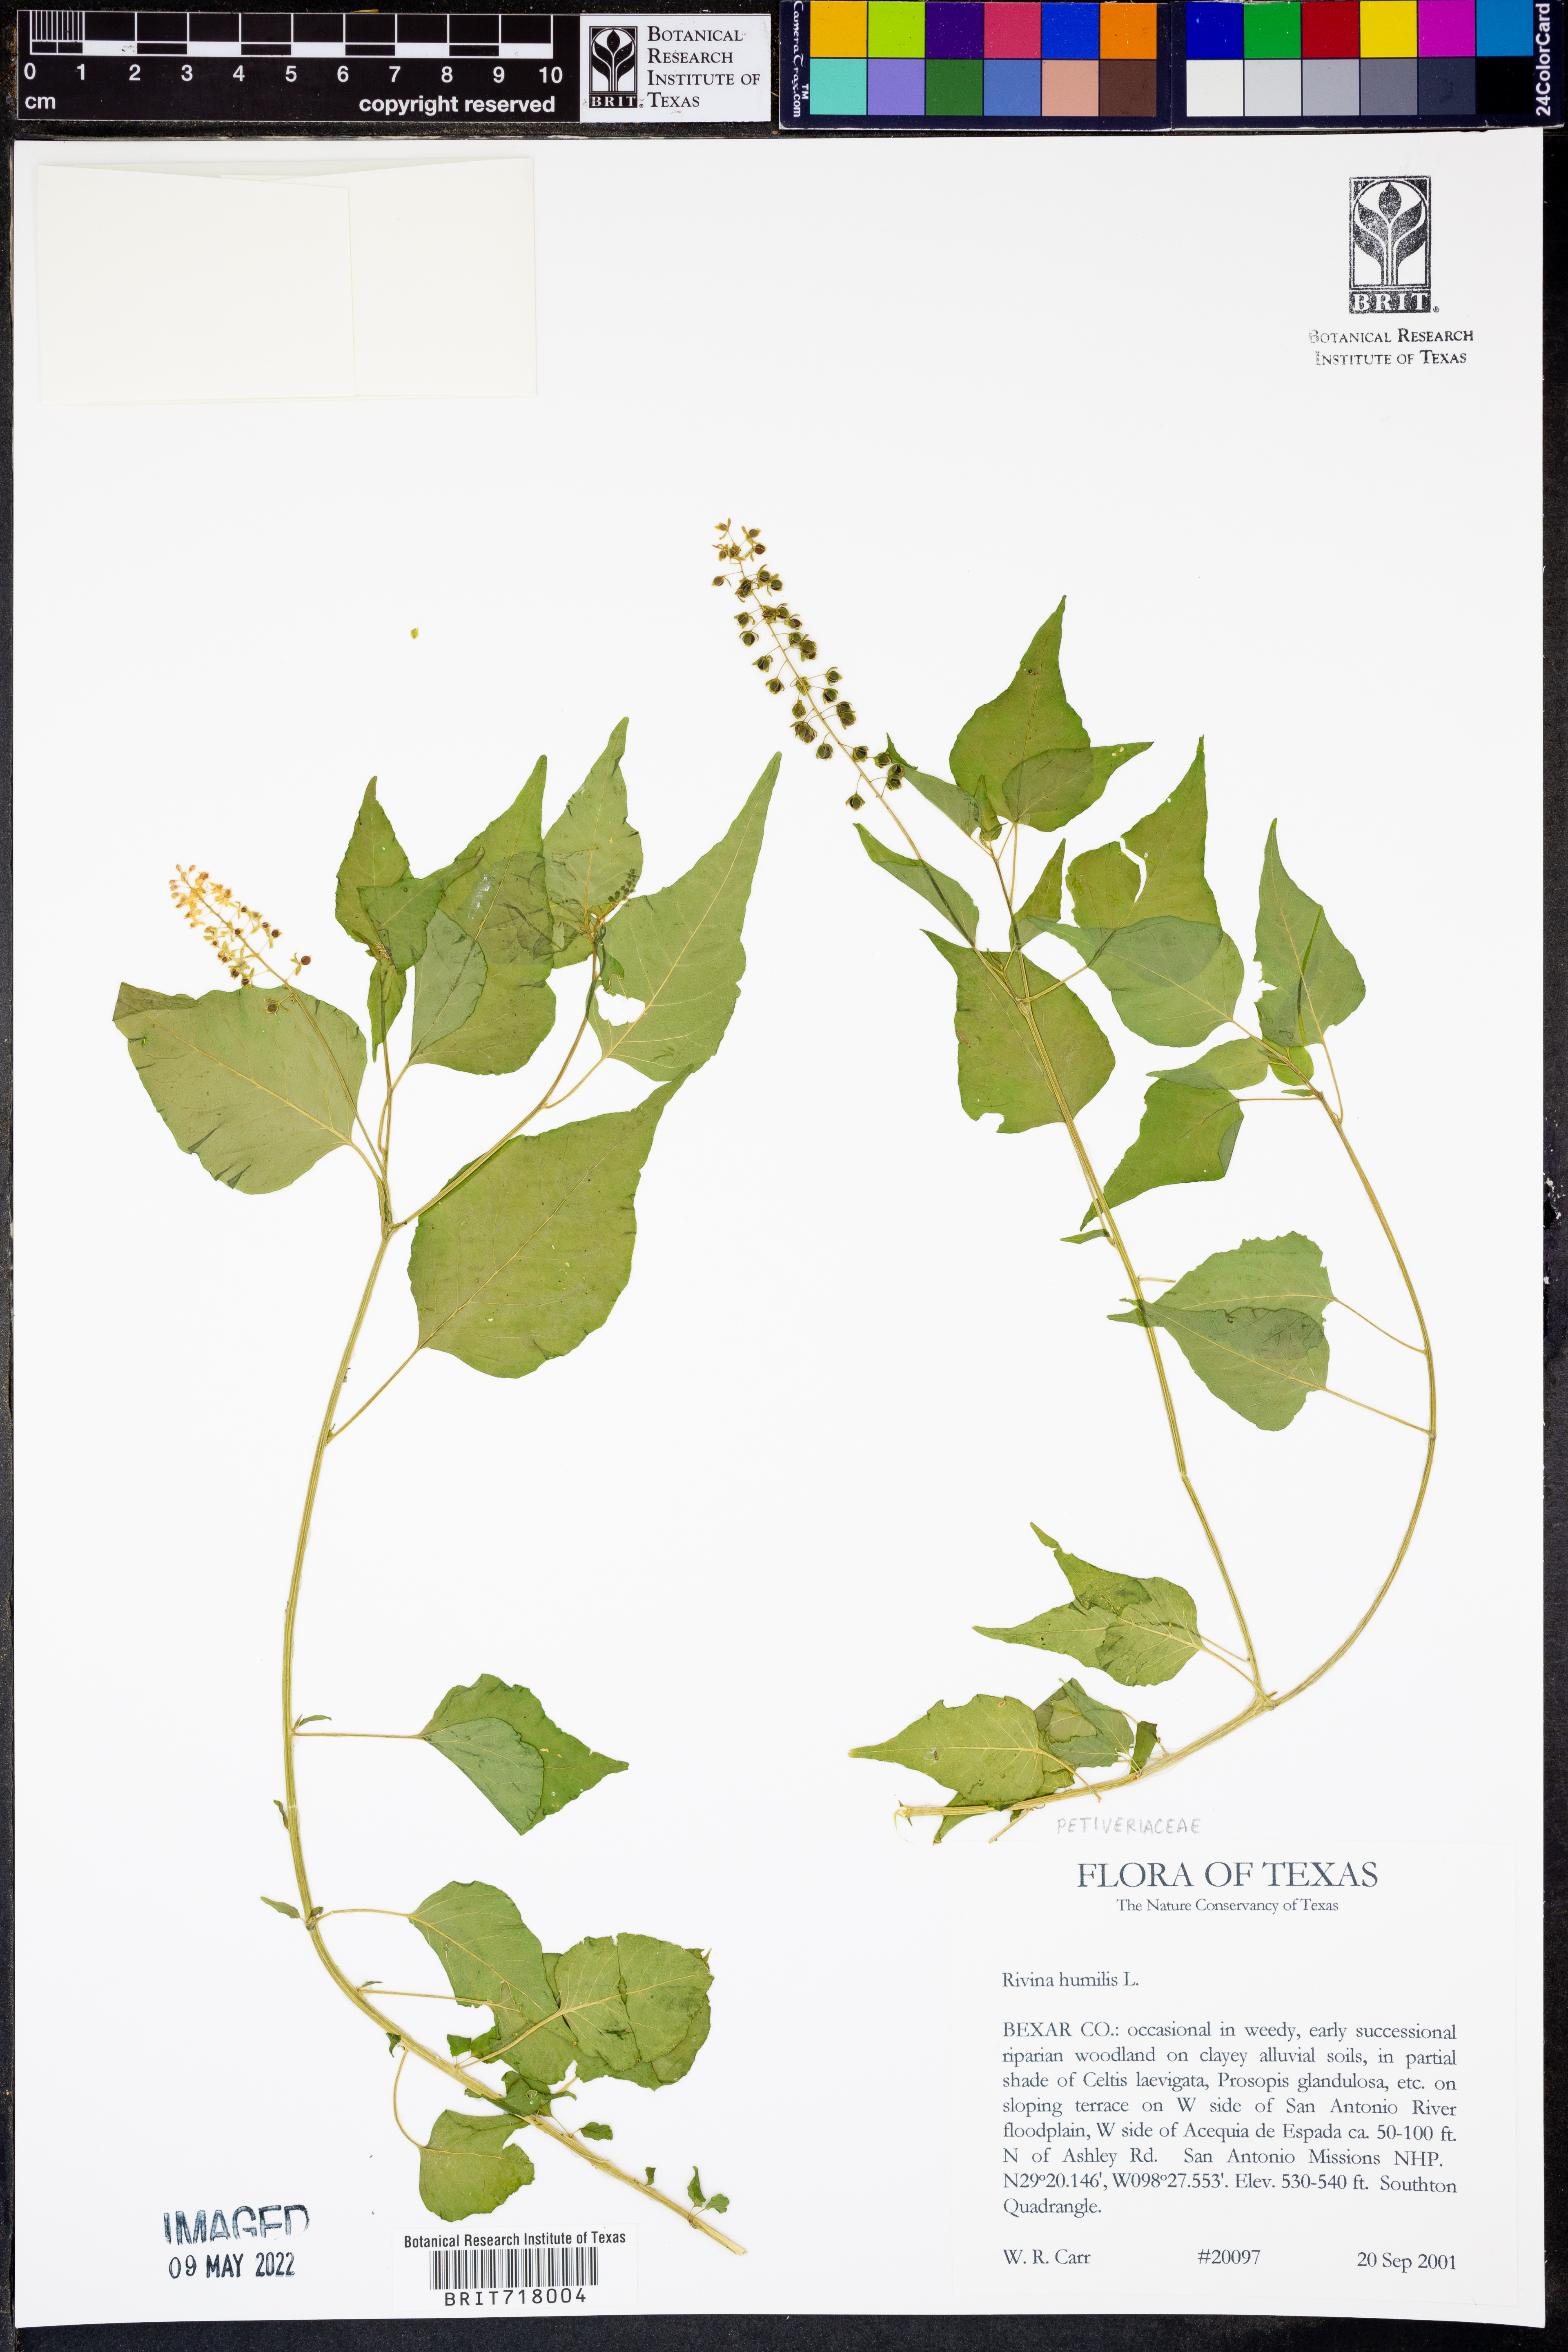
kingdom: Plantae
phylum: Tracheophyta
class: Magnoliopsida
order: Caryophyllales
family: Phytolaccaceae
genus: Rivina
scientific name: Rivina humilis
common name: Rougeplant
